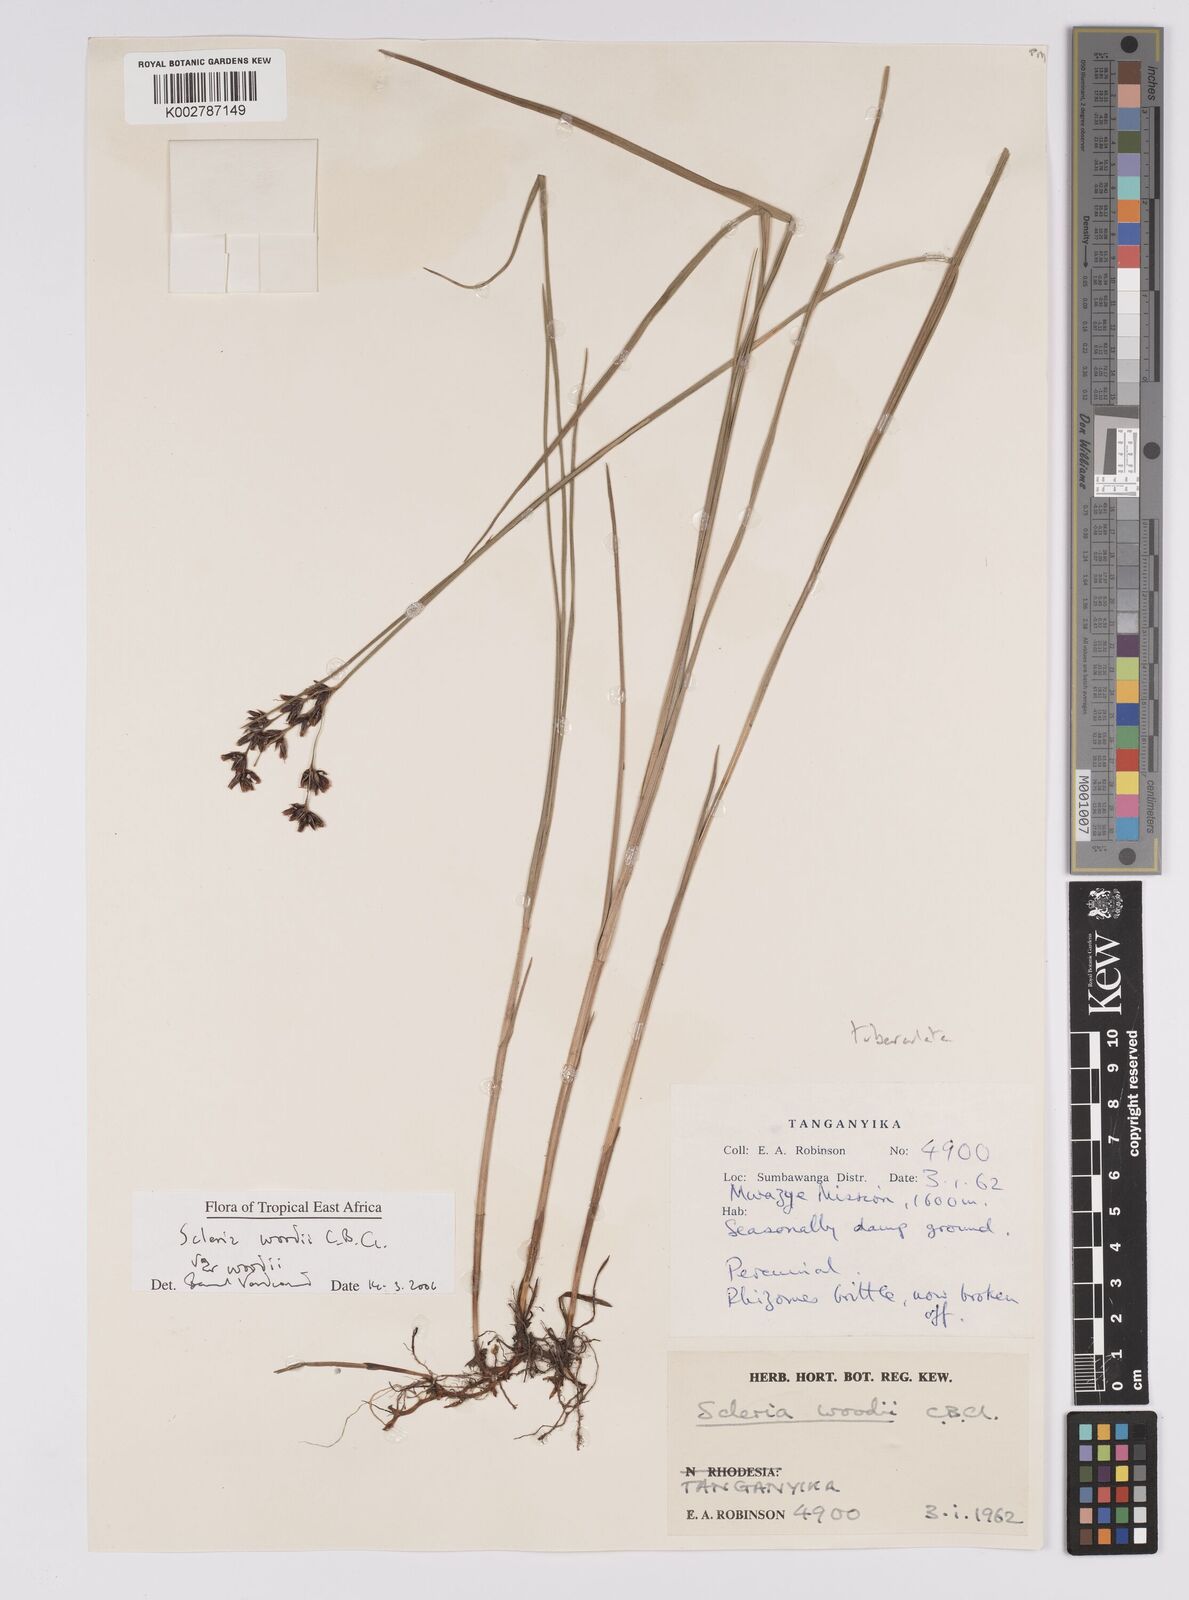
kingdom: Plantae
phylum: Tracheophyta
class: Liliopsida
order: Poales
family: Cyperaceae
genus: Scleria
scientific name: Scleria woodii
